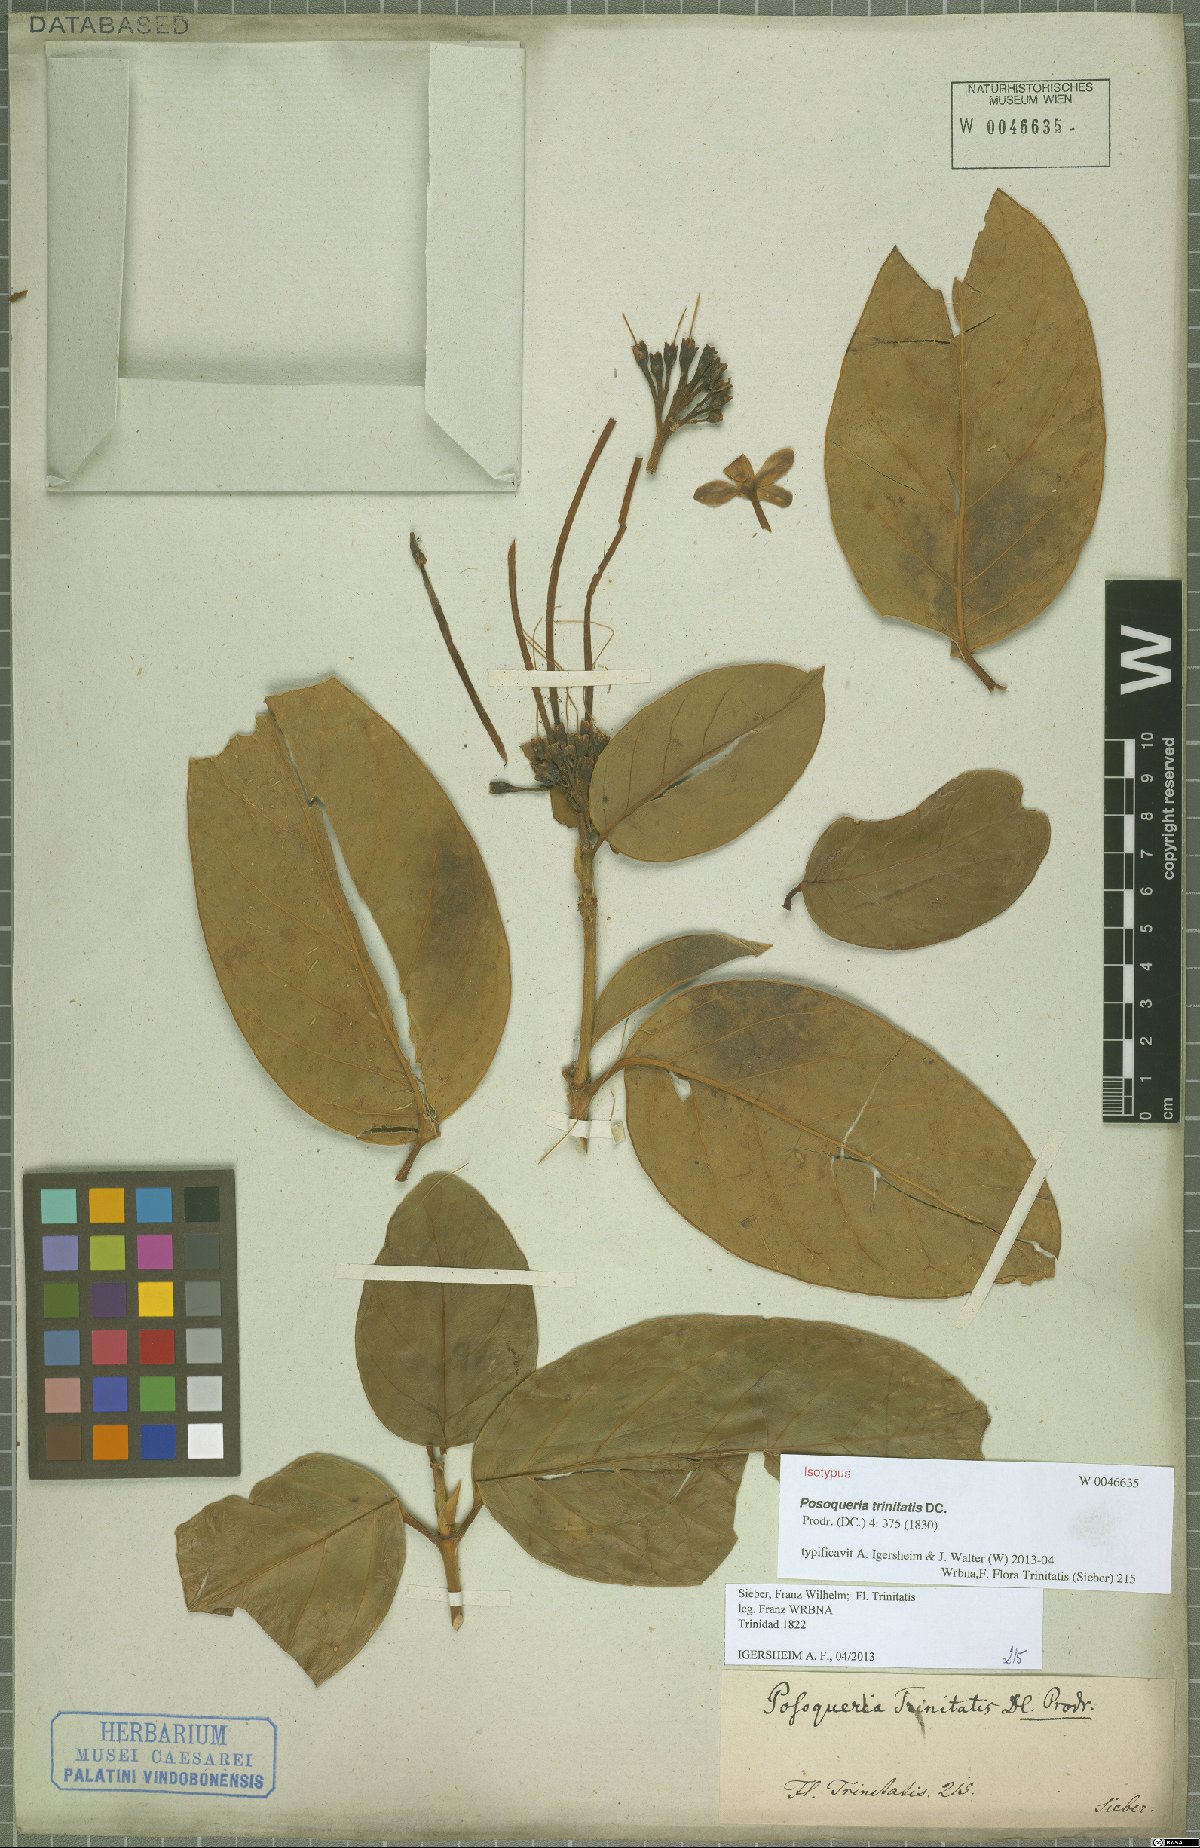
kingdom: Plantae
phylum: Tracheophyta
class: Magnoliopsida
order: Gentianales
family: Rubiaceae
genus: Posoqueria
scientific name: Posoqueria trinitatis
